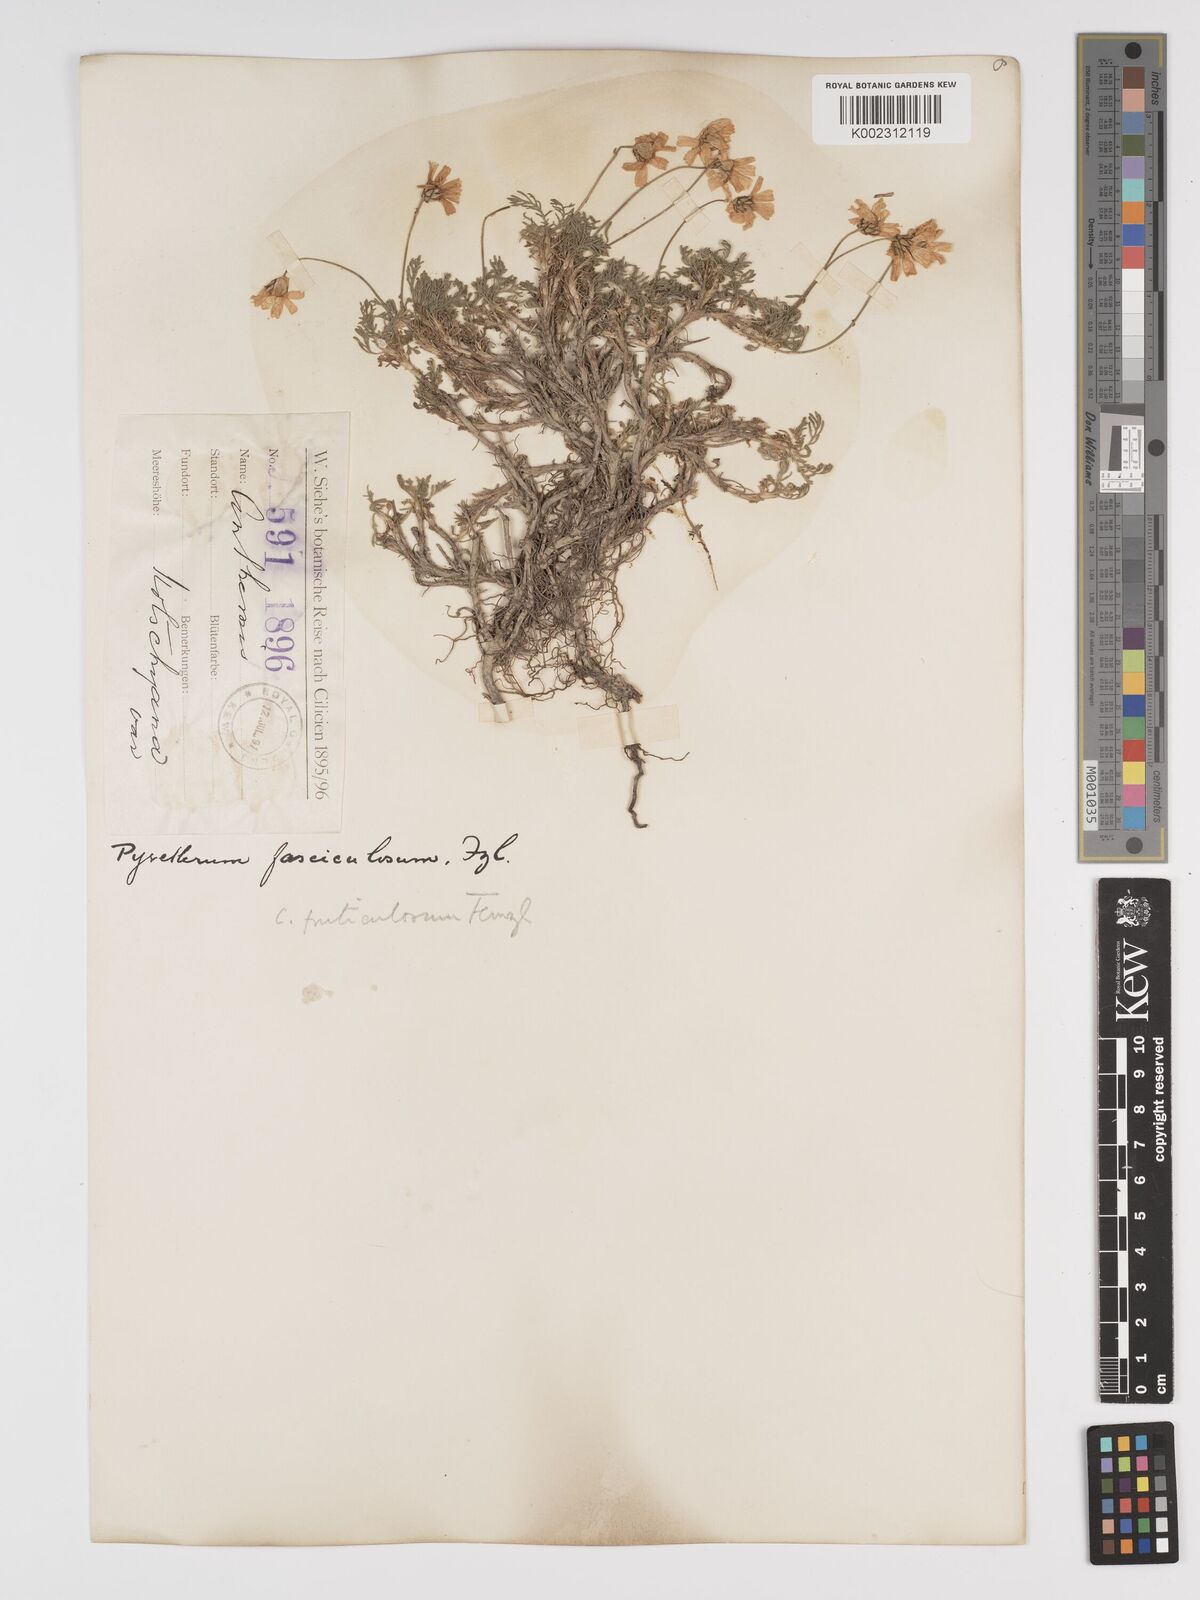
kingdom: Plantae
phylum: Tracheophyta
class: Magnoliopsida
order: Asterales
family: Asteraceae
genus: Ajania
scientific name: Ajania fruticulosa
